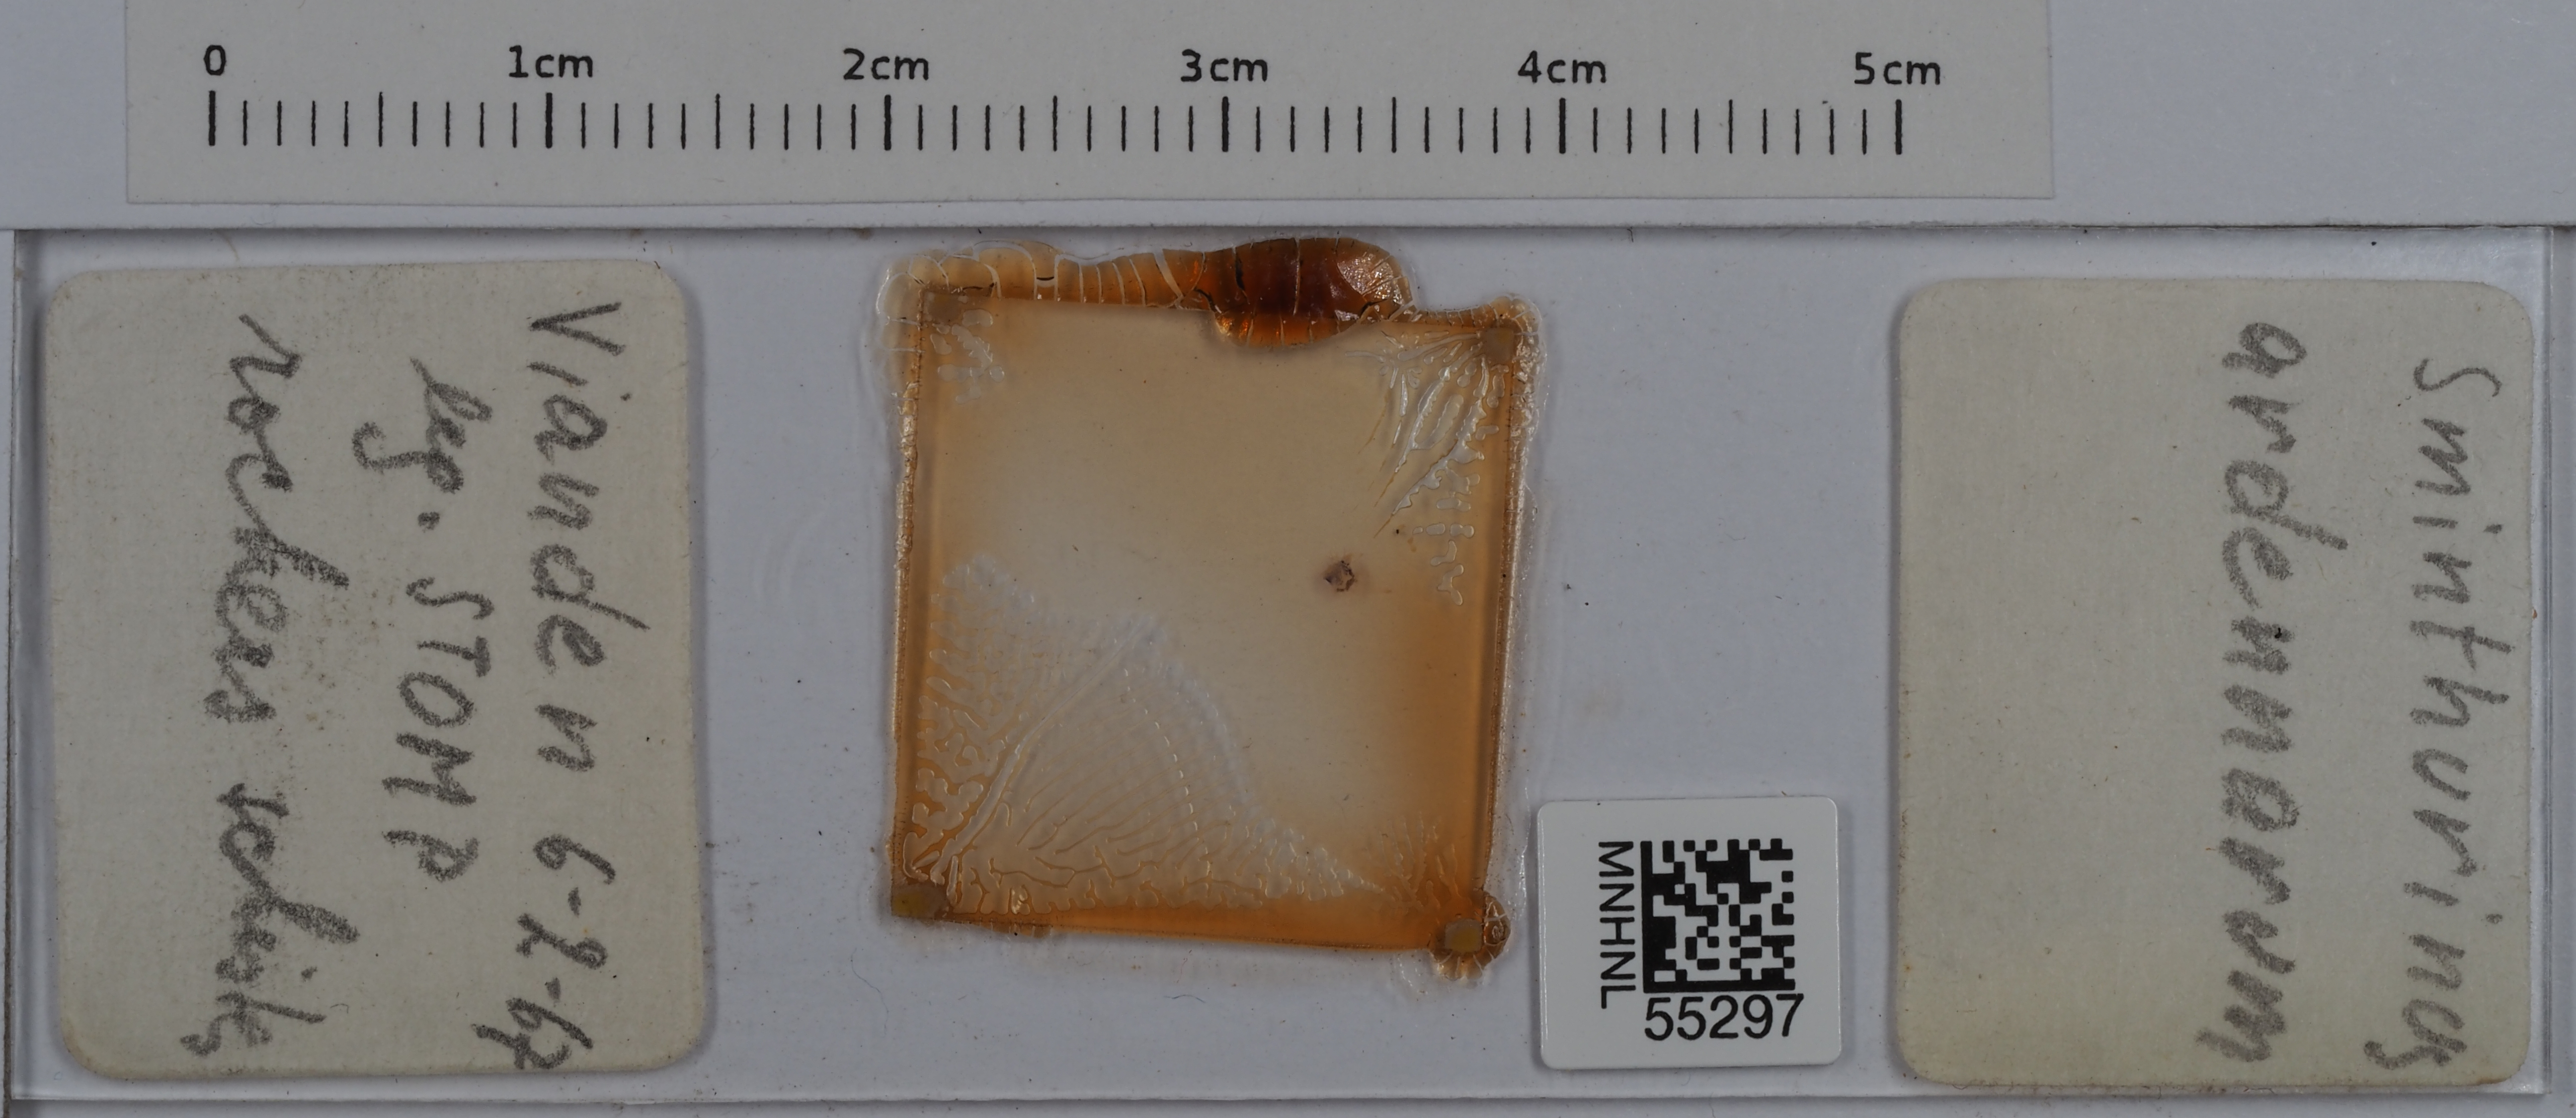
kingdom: Animalia
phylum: Arthropoda
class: Collembola
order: Symphypleona
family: Katiannidae
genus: Sminthurinus
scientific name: Sminthurinus
